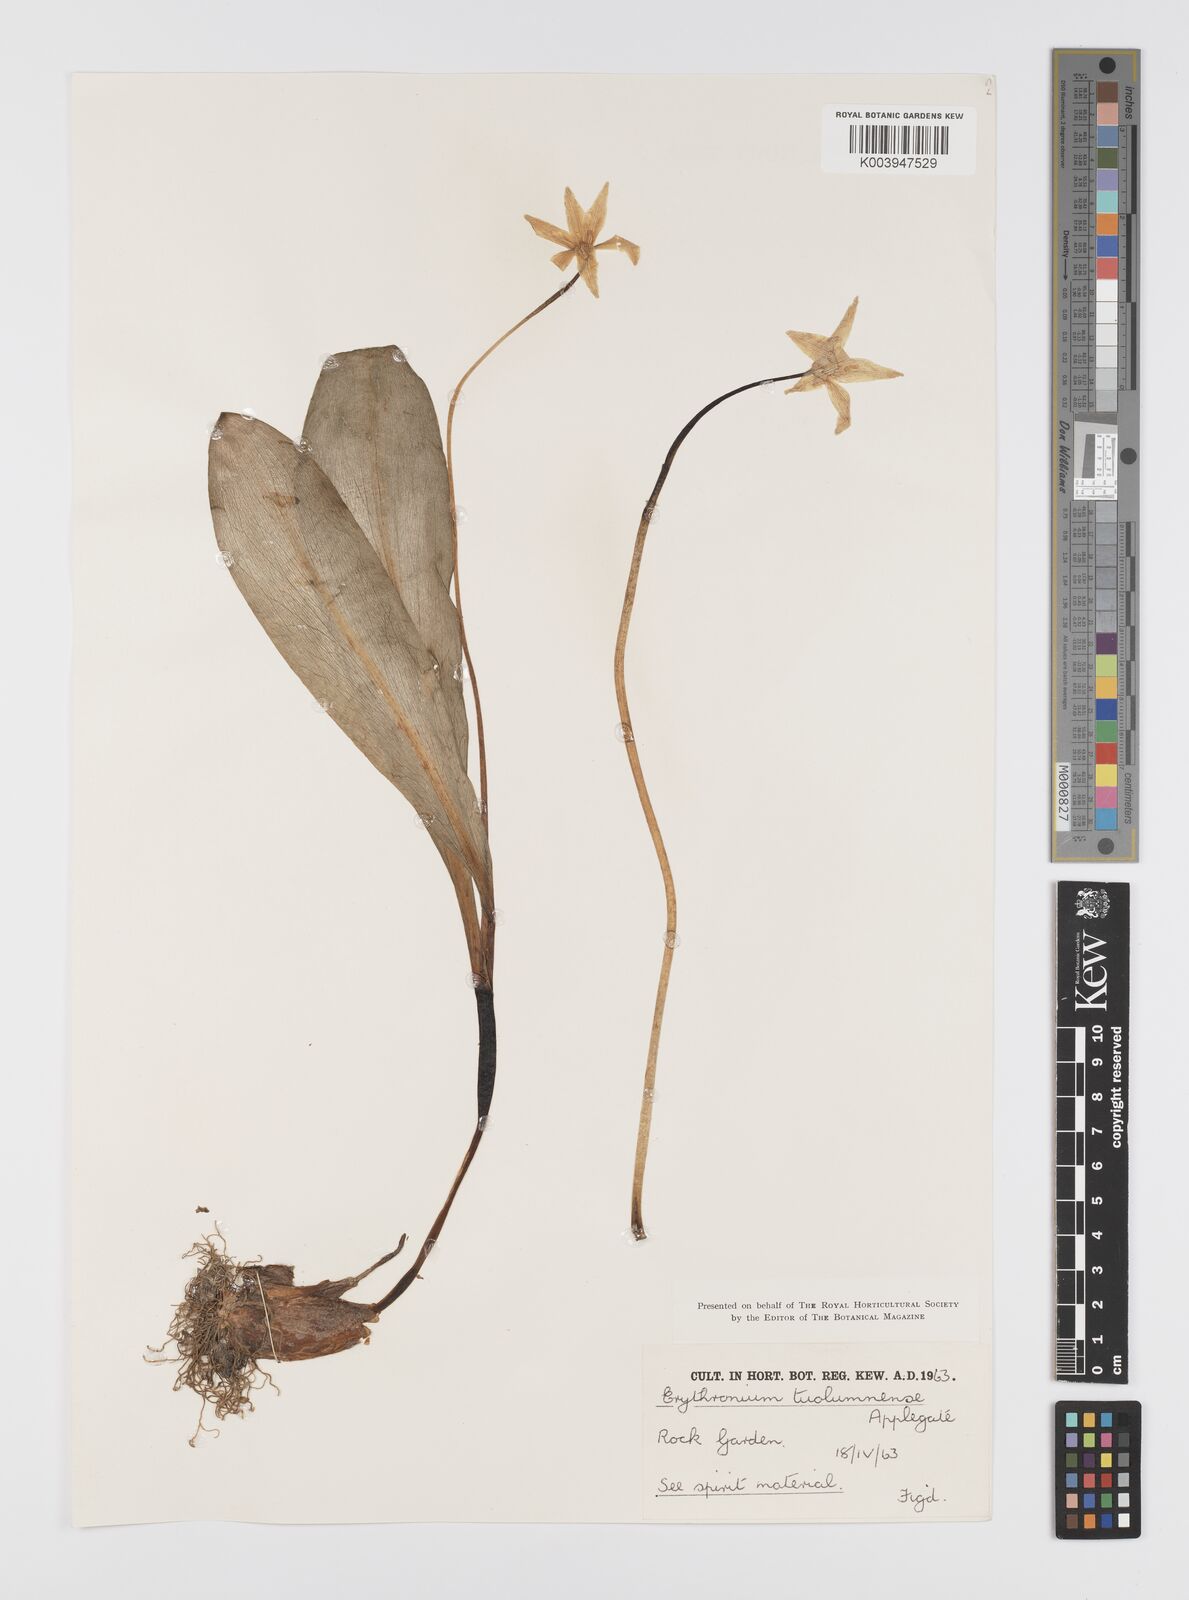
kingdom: Plantae
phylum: Tracheophyta
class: Liliopsida
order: Liliales
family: Liliaceae
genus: Erythronium
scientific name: Erythronium tuolumnense
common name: Tuolumne fawn-lily
